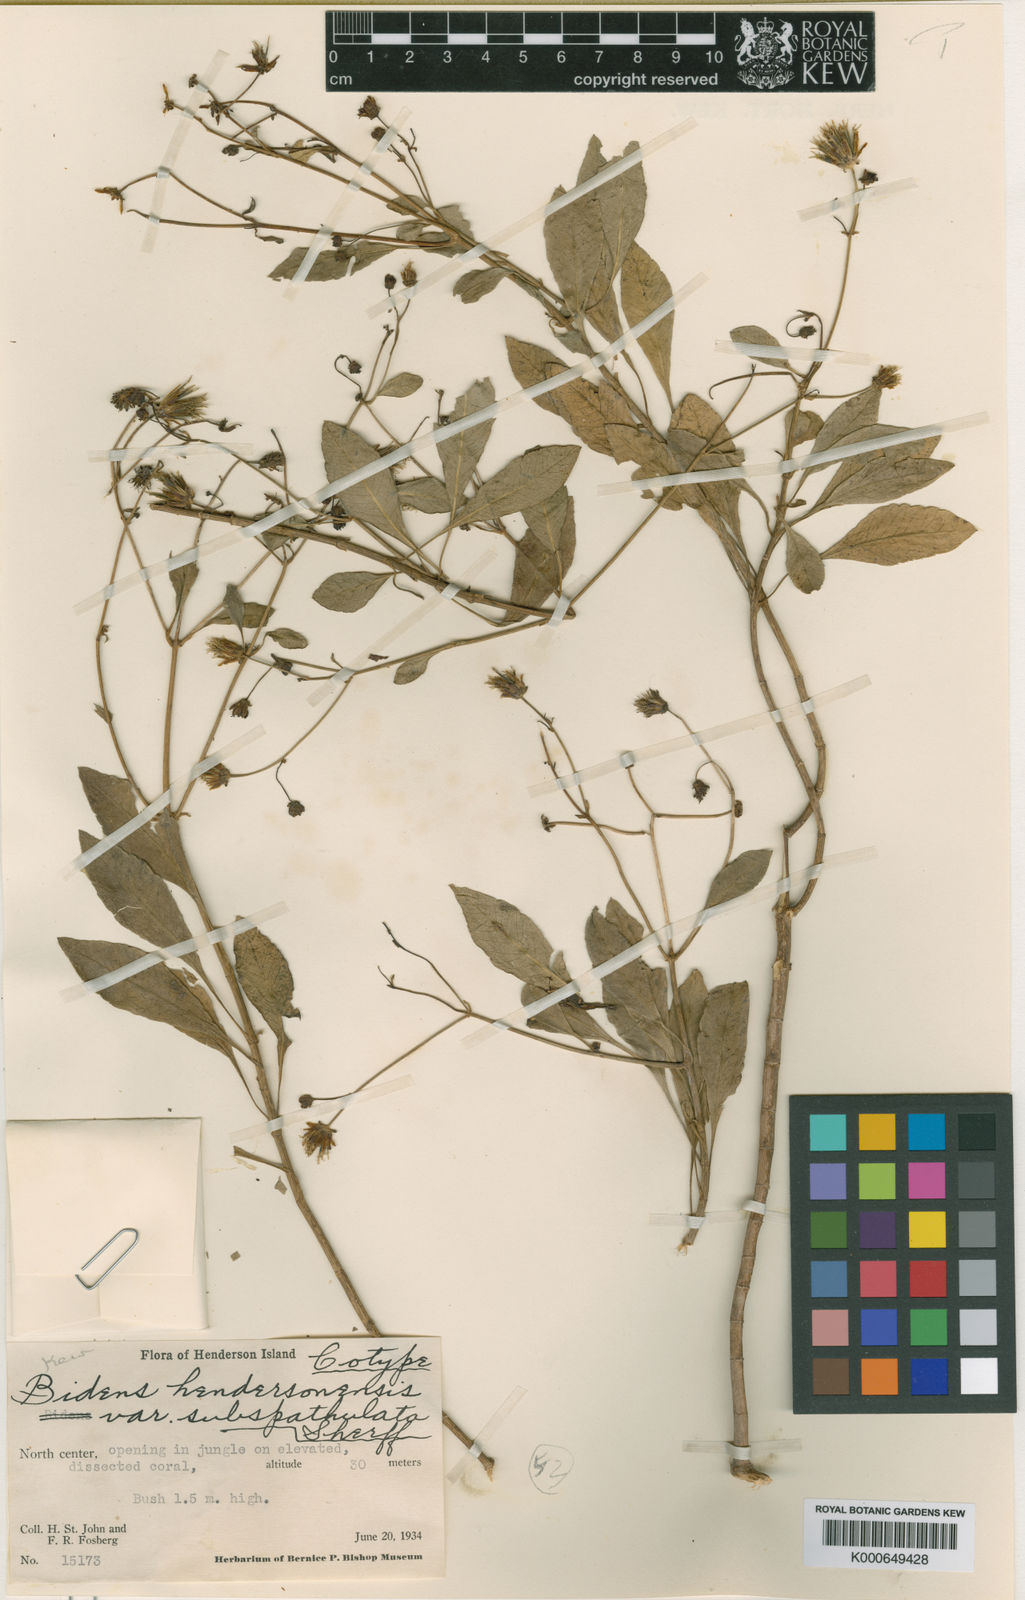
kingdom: Plantae
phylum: Tracheophyta
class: Magnoliopsida
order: Asterales
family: Asteraceae
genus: Bidens
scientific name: Bidens
